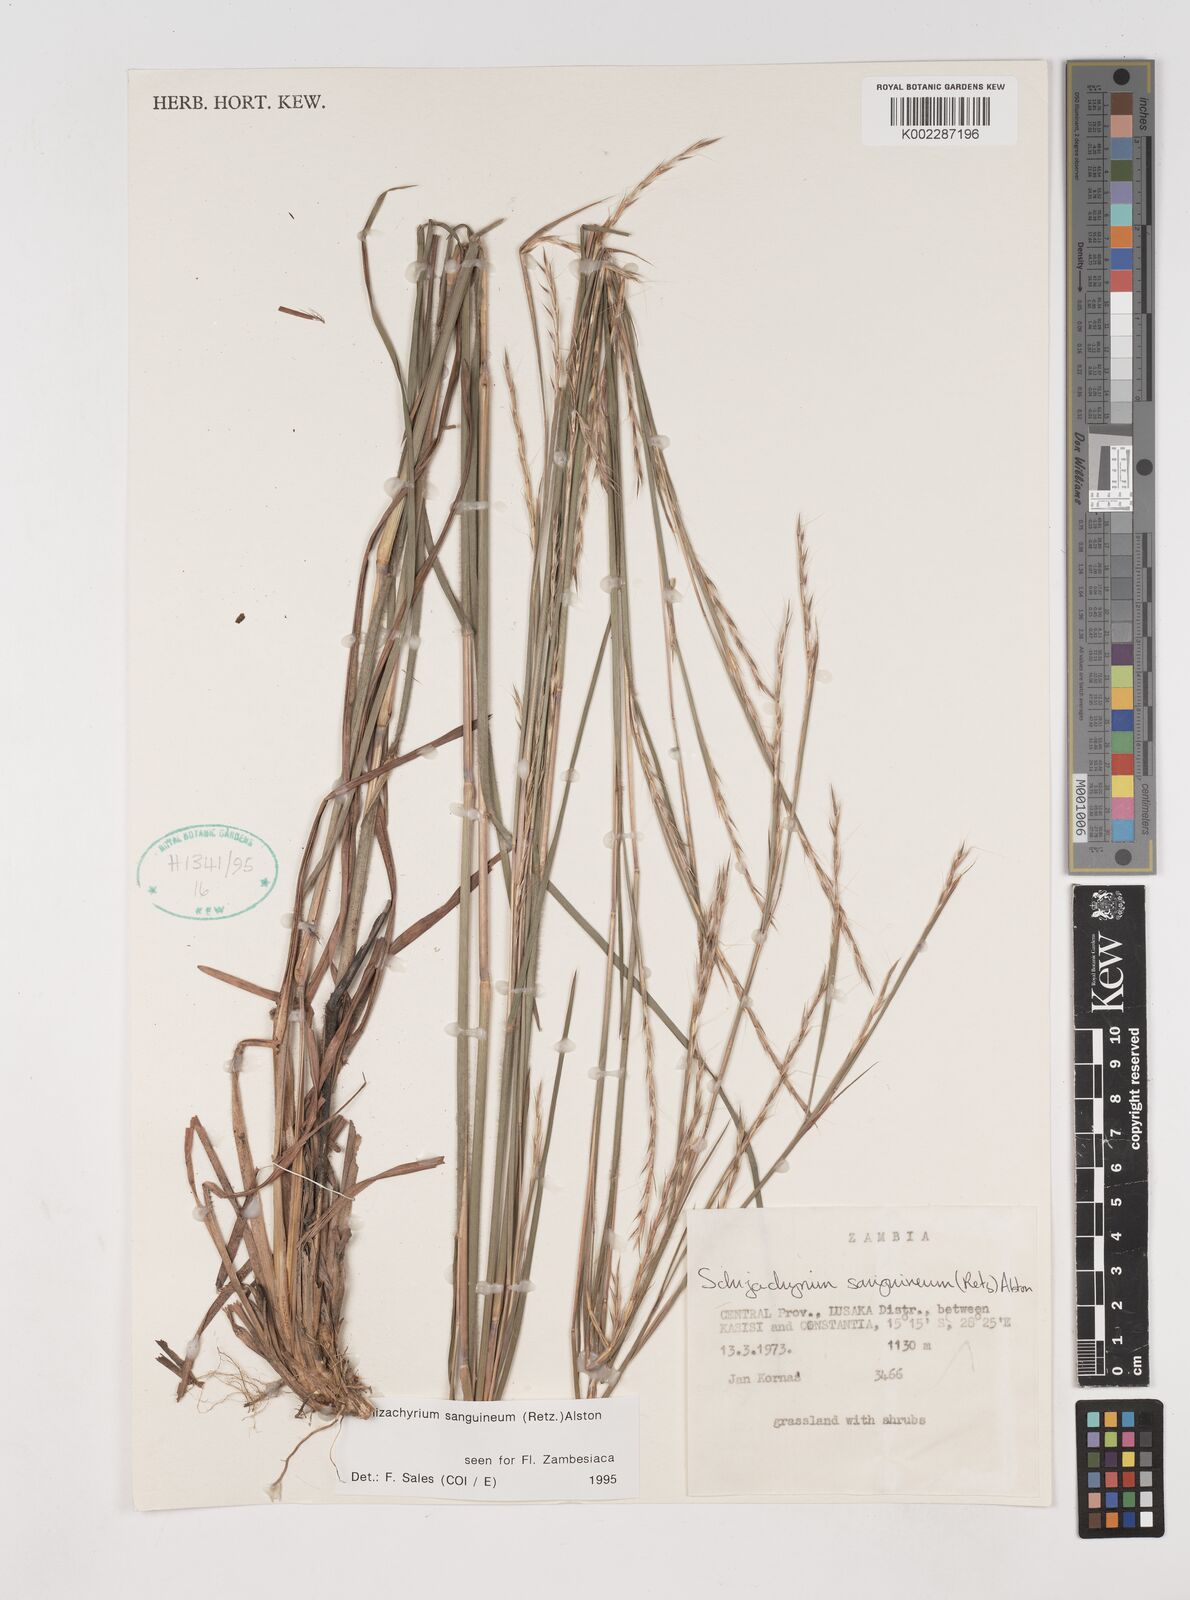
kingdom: Plantae
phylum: Tracheophyta
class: Liliopsida
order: Poales
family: Poaceae
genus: Schizachyrium
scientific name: Schizachyrium sanguineum
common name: Crimson bluestem
